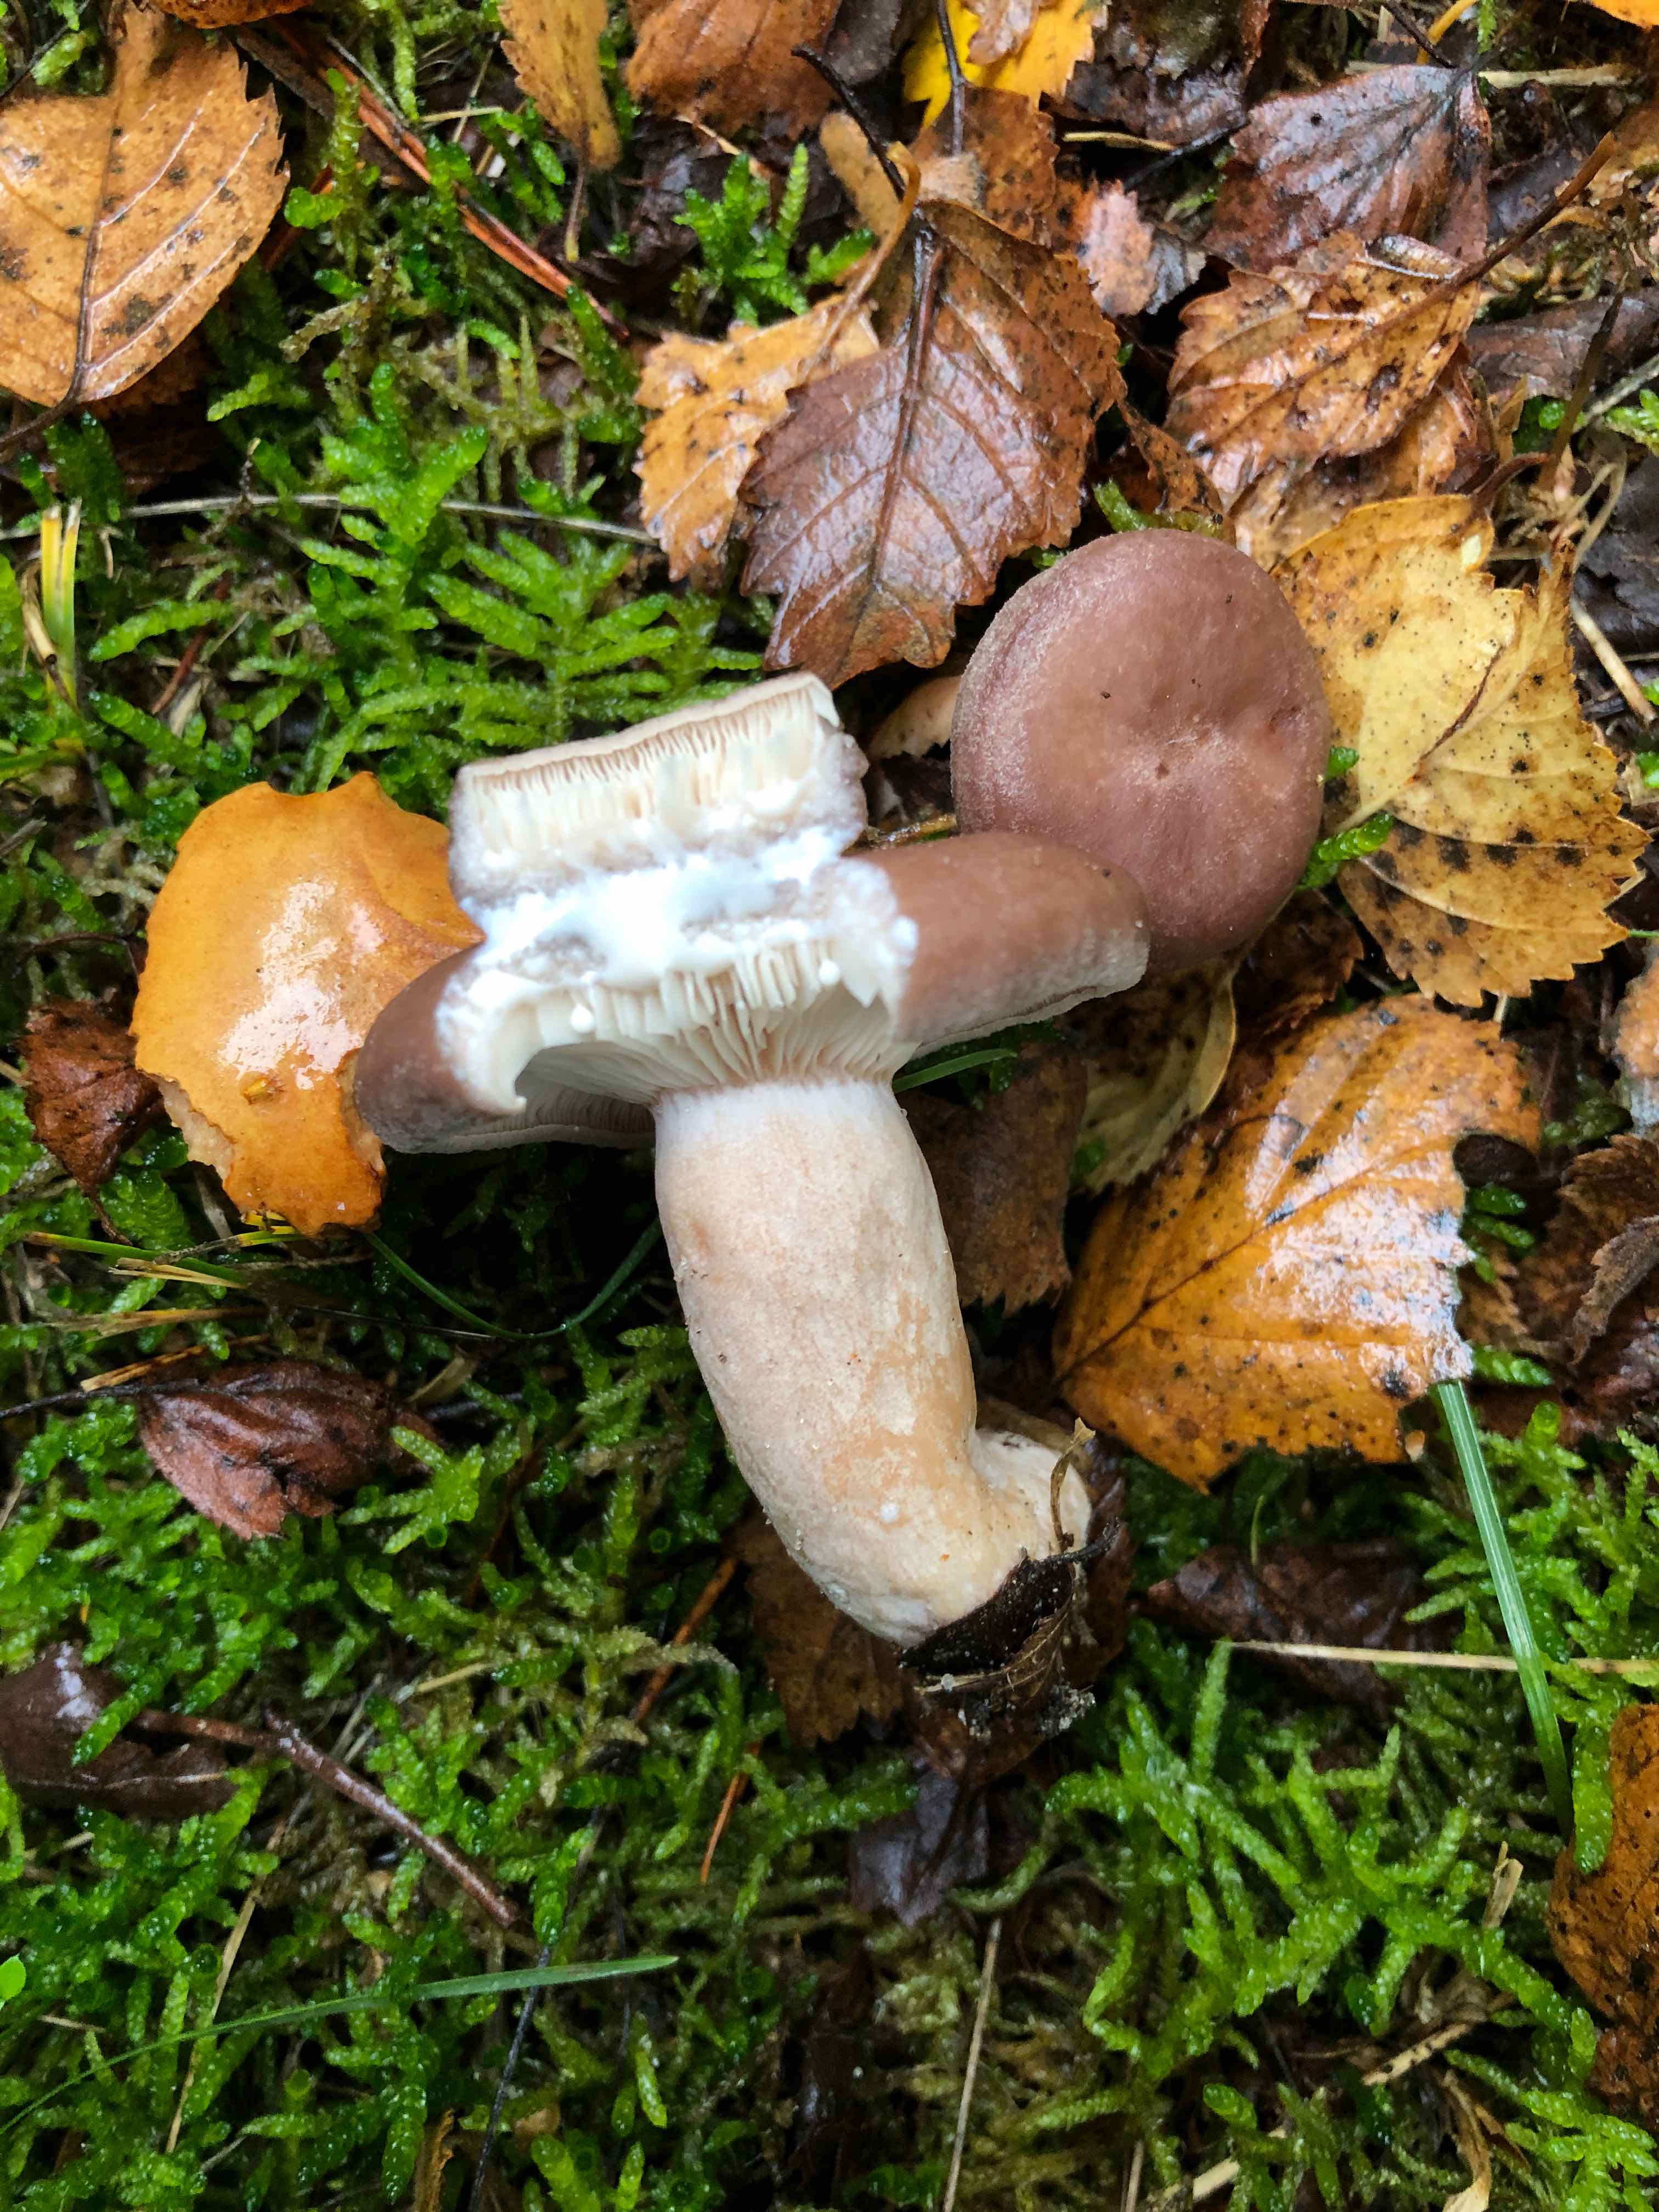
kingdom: Fungi
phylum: Basidiomycota
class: Agaricomycetes
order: Russulales
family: Russulaceae
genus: Lactarius
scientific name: Lactarius vietus
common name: violetgrå mælkehat
